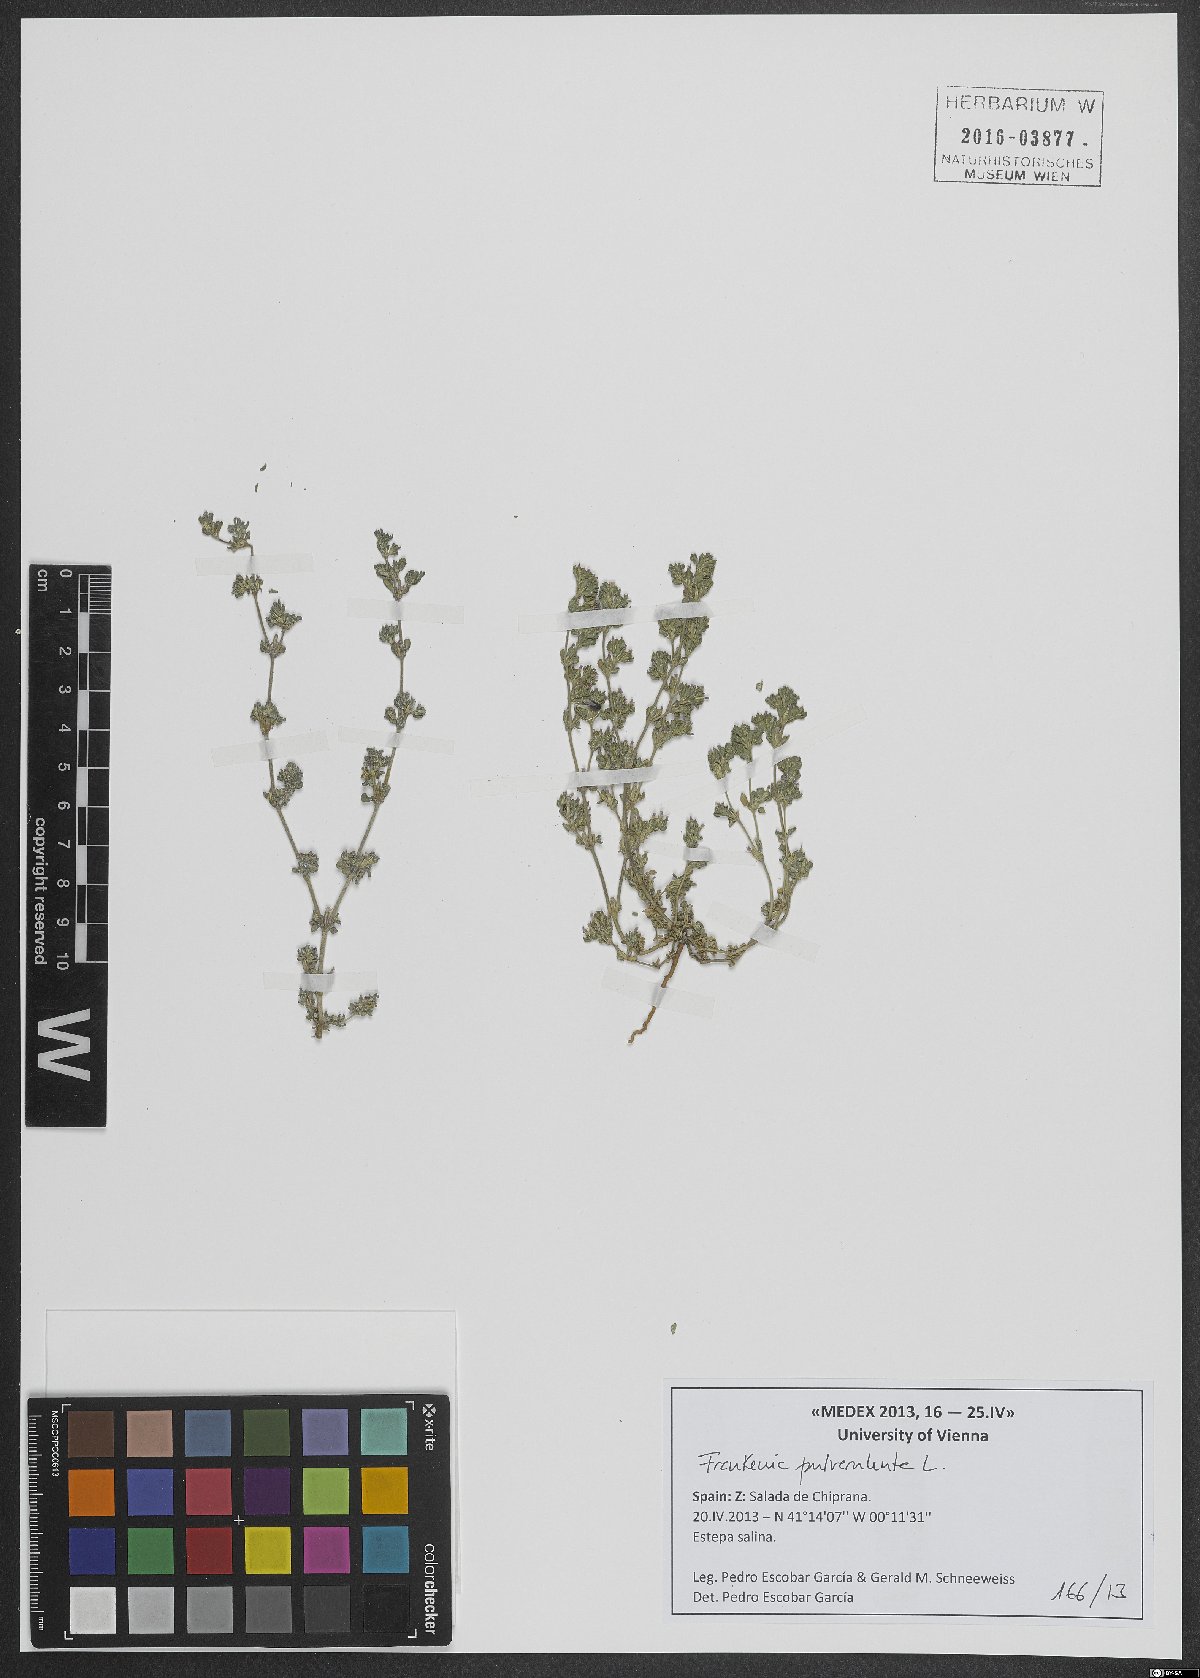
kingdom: Plantae
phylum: Tracheophyta
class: Magnoliopsida
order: Caryophyllales
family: Frankeniaceae
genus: Frankenia
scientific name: Frankenia pulverulenta
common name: European seaheath
